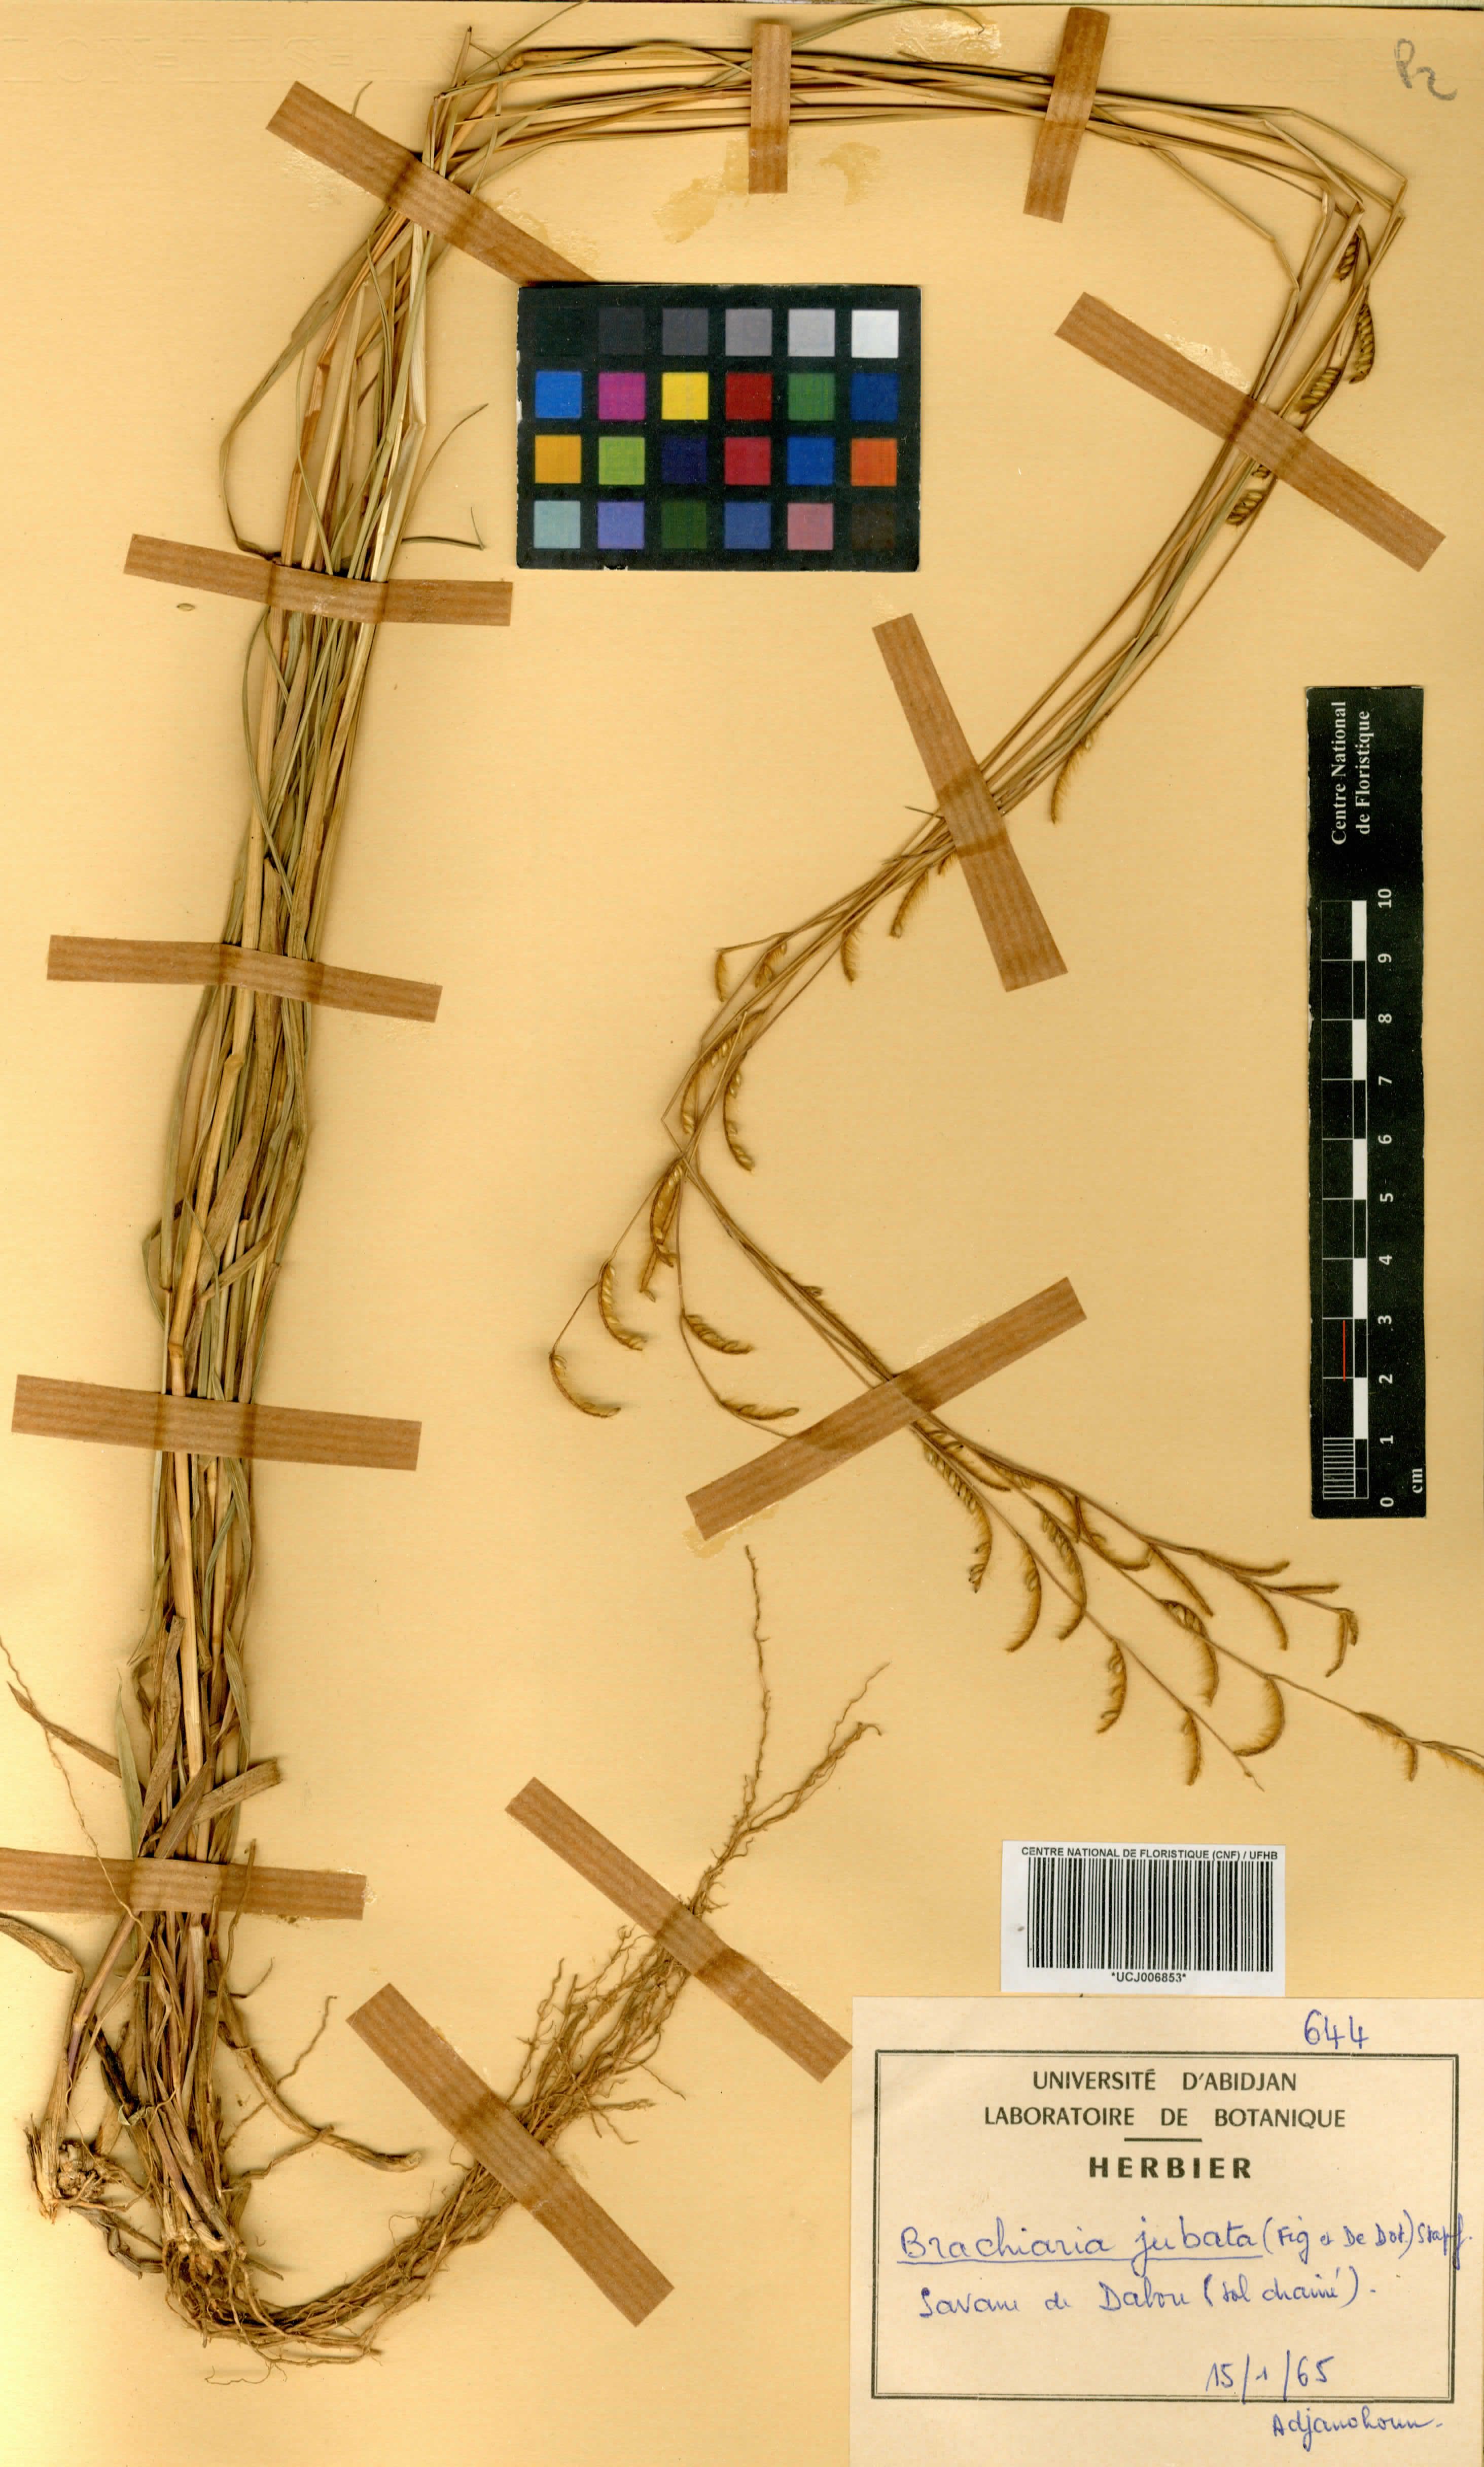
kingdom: Plantae
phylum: Tracheophyta
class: Liliopsida
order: Poales
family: Poaceae
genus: Urochloa
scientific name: Urochloa jubata
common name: Buffalograss
